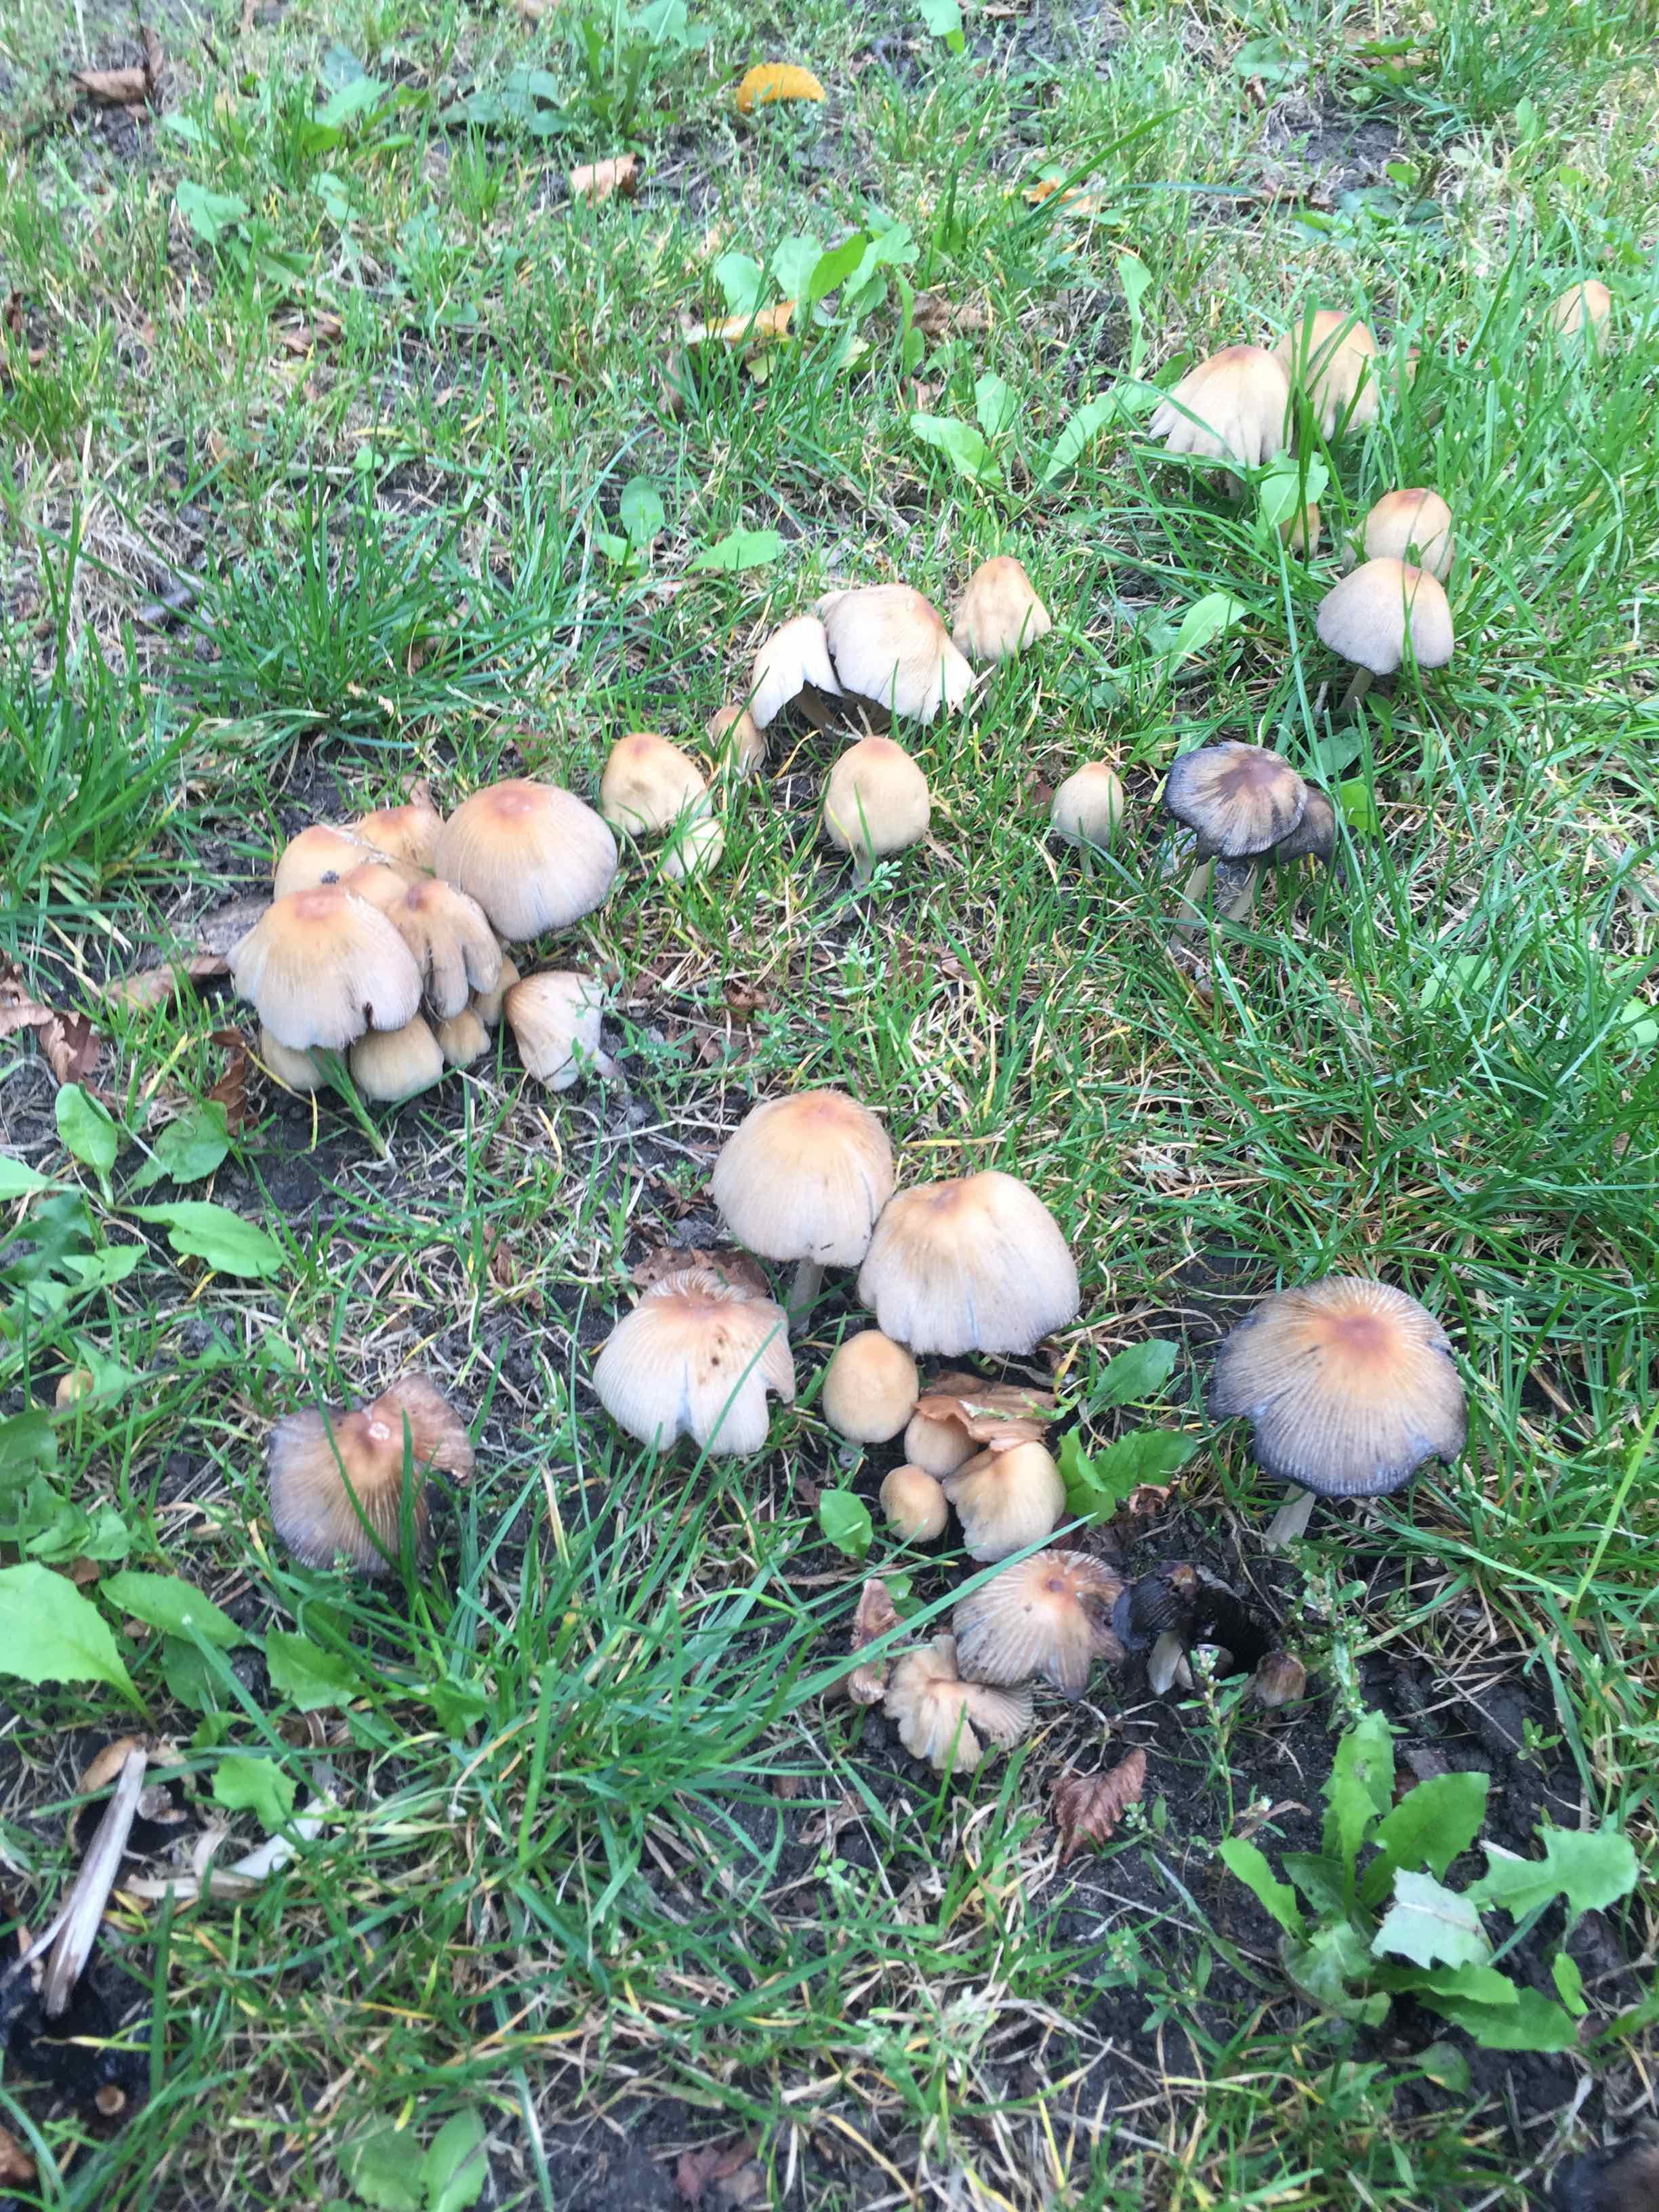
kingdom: Fungi
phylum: Basidiomycota
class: Agaricomycetes
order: Agaricales
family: Psathyrellaceae
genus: Coprinellus
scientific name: Coprinellus micaceus
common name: glimmer-blækhat
